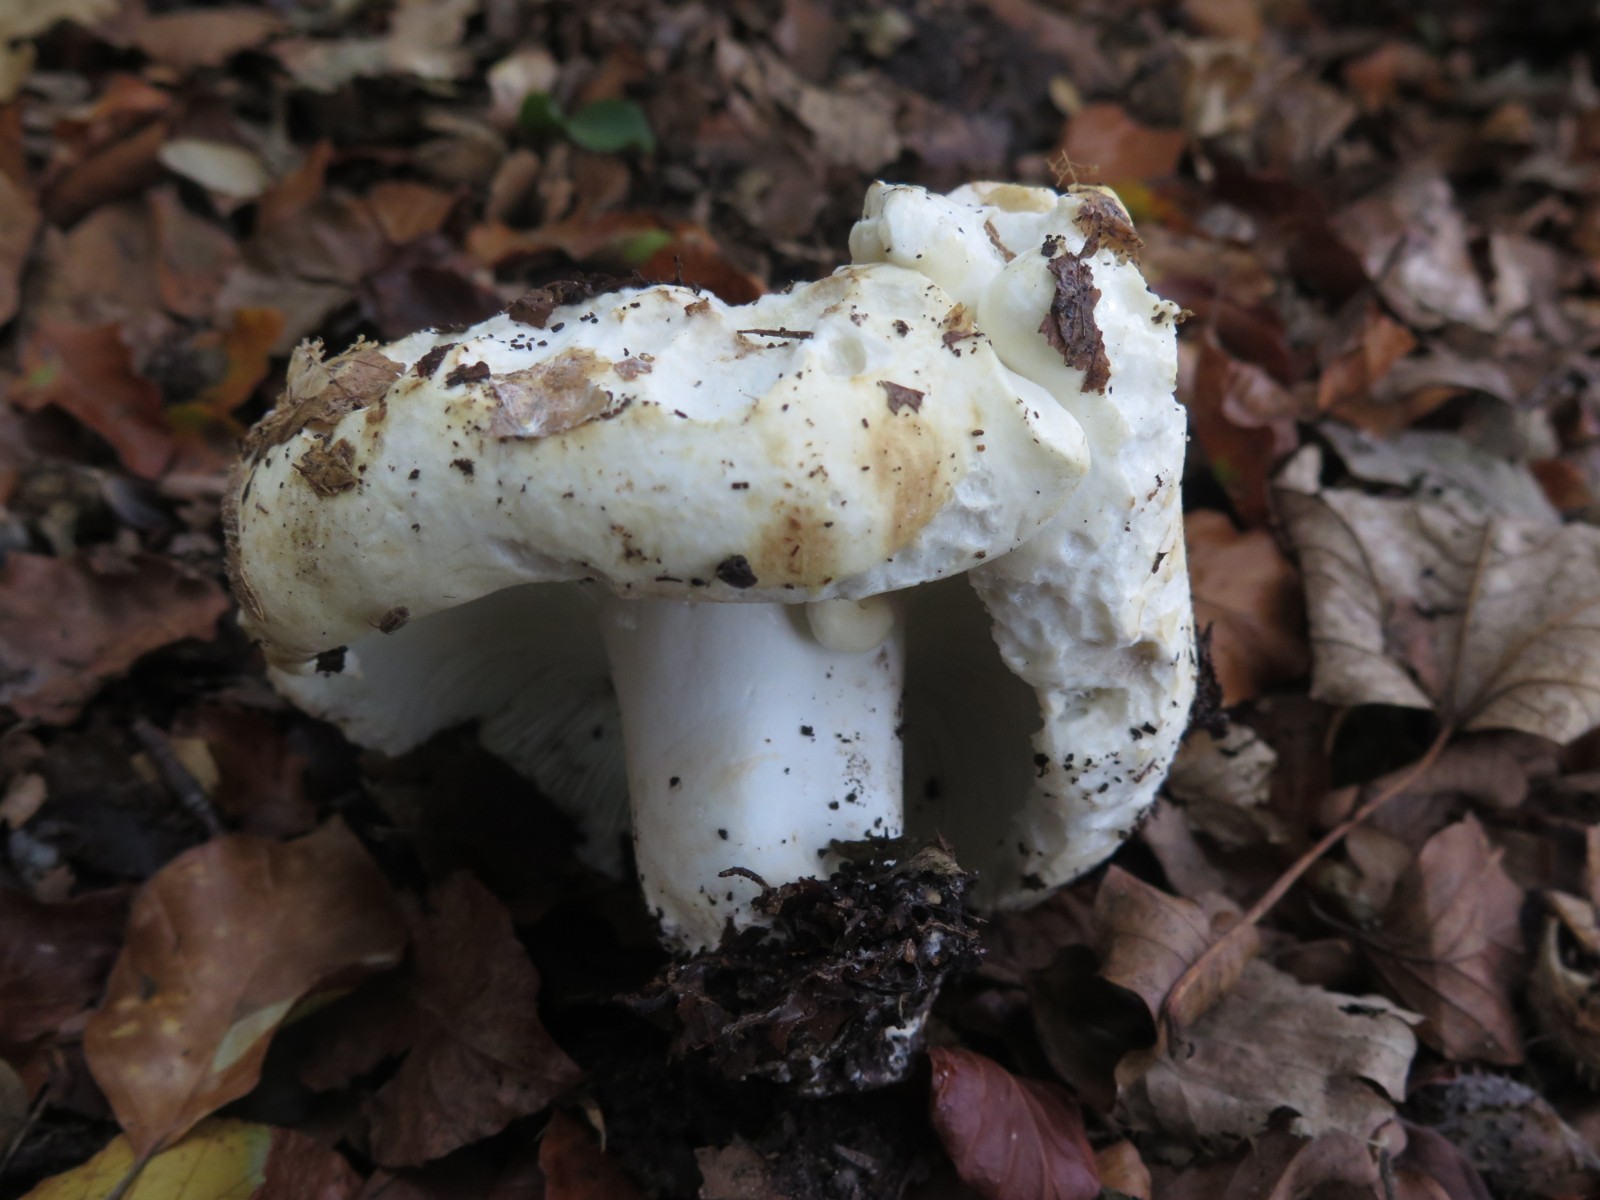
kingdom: Fungi
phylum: Basidiomycota
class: Agaricomycetes
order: Russulales
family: Russulaceae
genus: Russula
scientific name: Russula chloroides
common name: grønhalset tragt-skørhat
